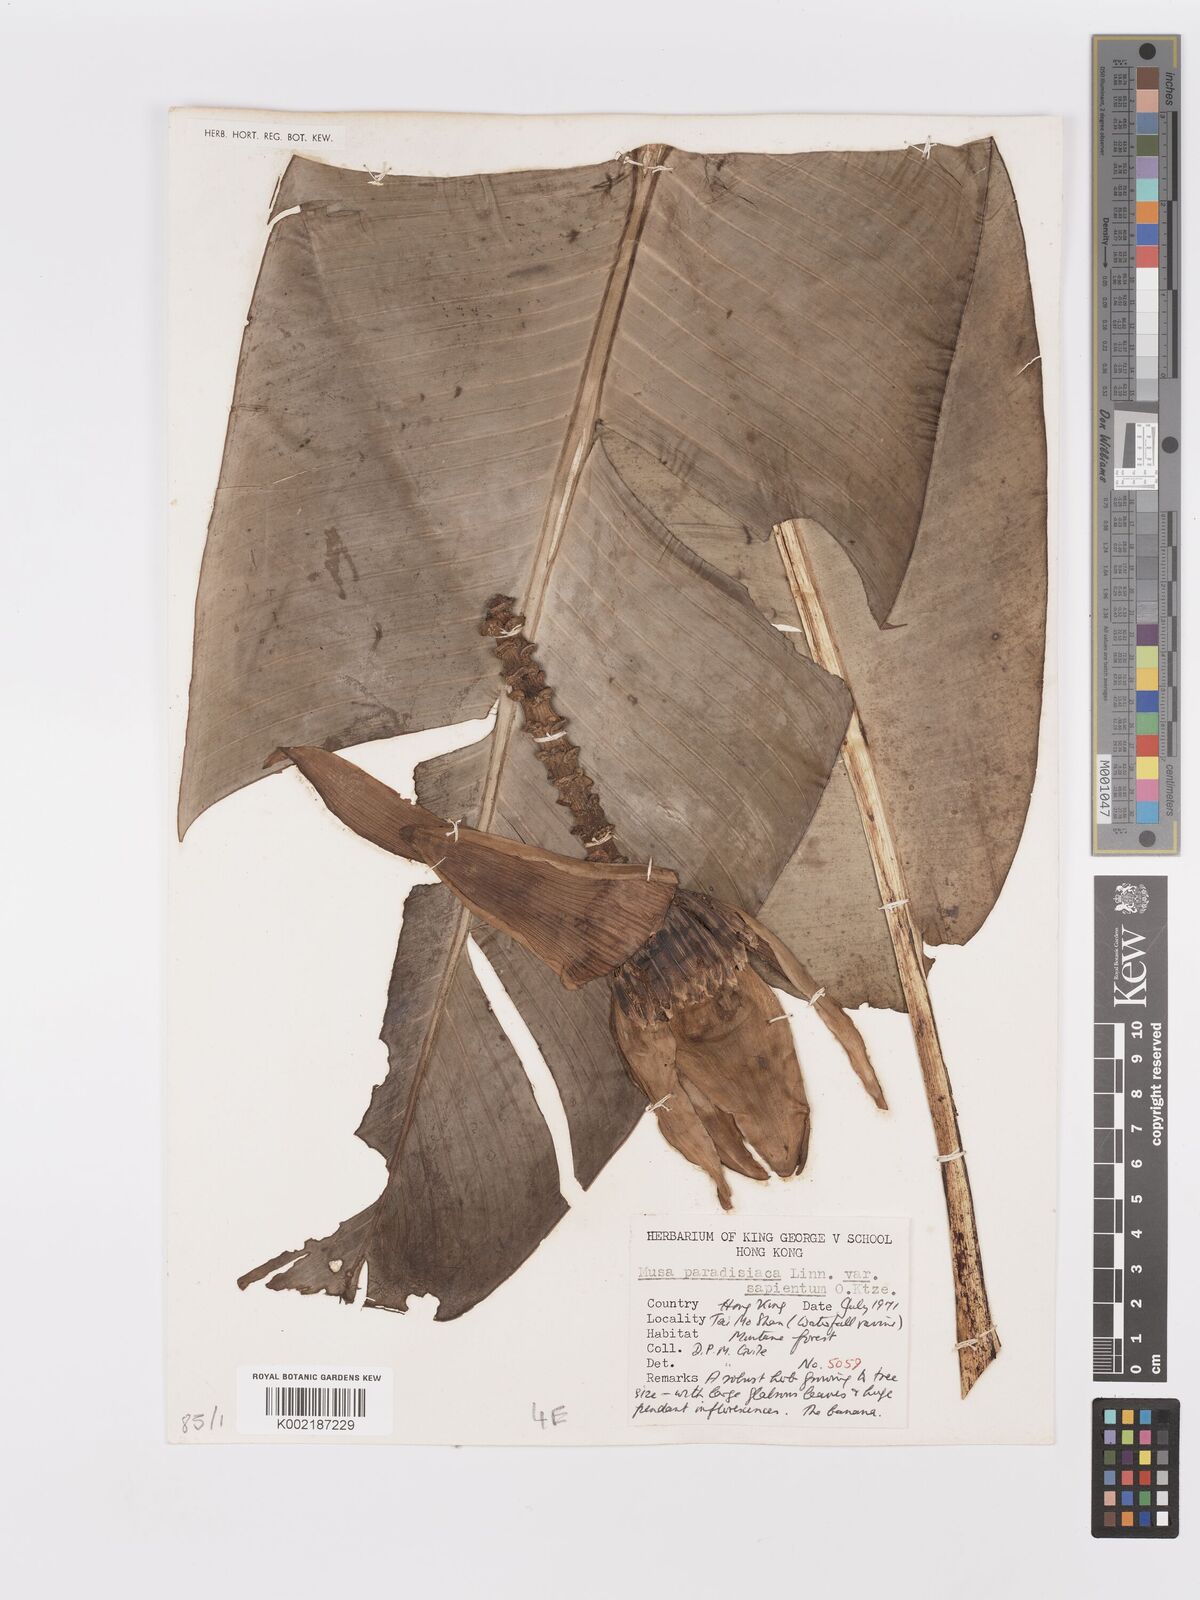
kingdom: Plantae
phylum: Tracheophyta
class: Liliopsida
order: Zingiberales
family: Musaceae
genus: Musa
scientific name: Musa paradisiaca
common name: French plantain
